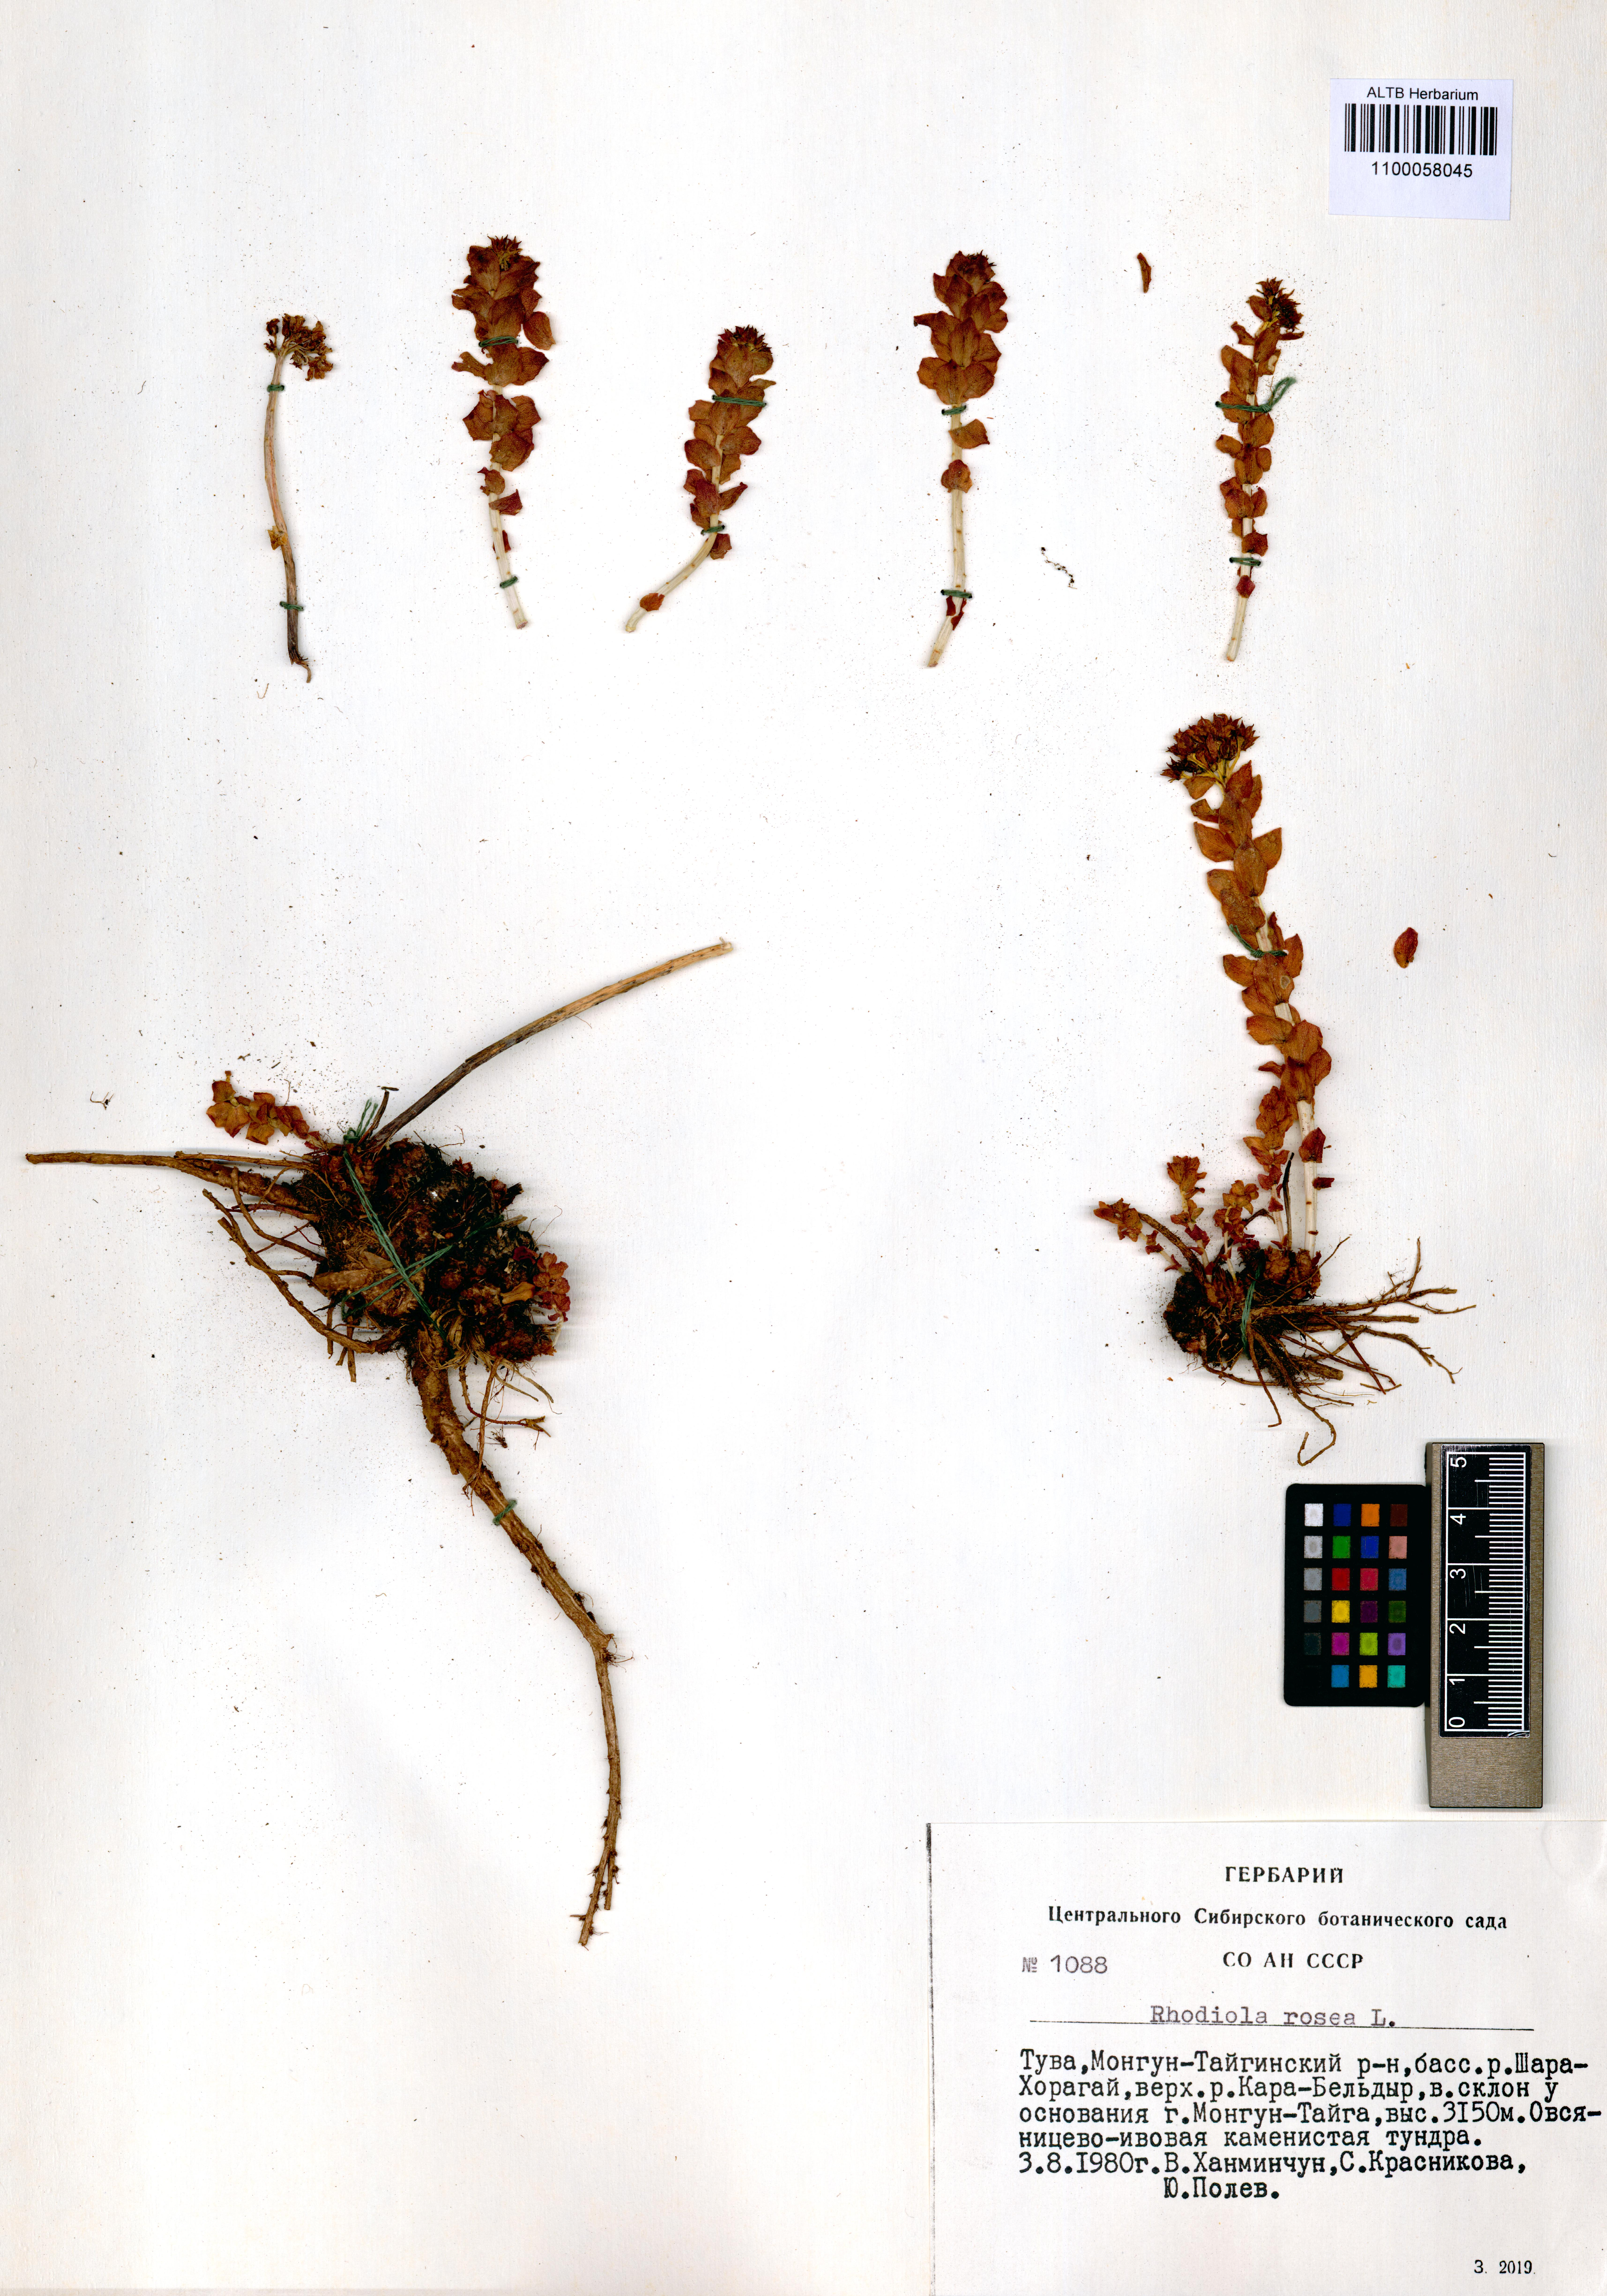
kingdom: Plantae
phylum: Tracheophyta
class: Magnoliopsida
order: Saxifragales
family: Crassulaceae
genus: Rhodiola
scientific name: Rhodiola rosea
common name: Roseroot
